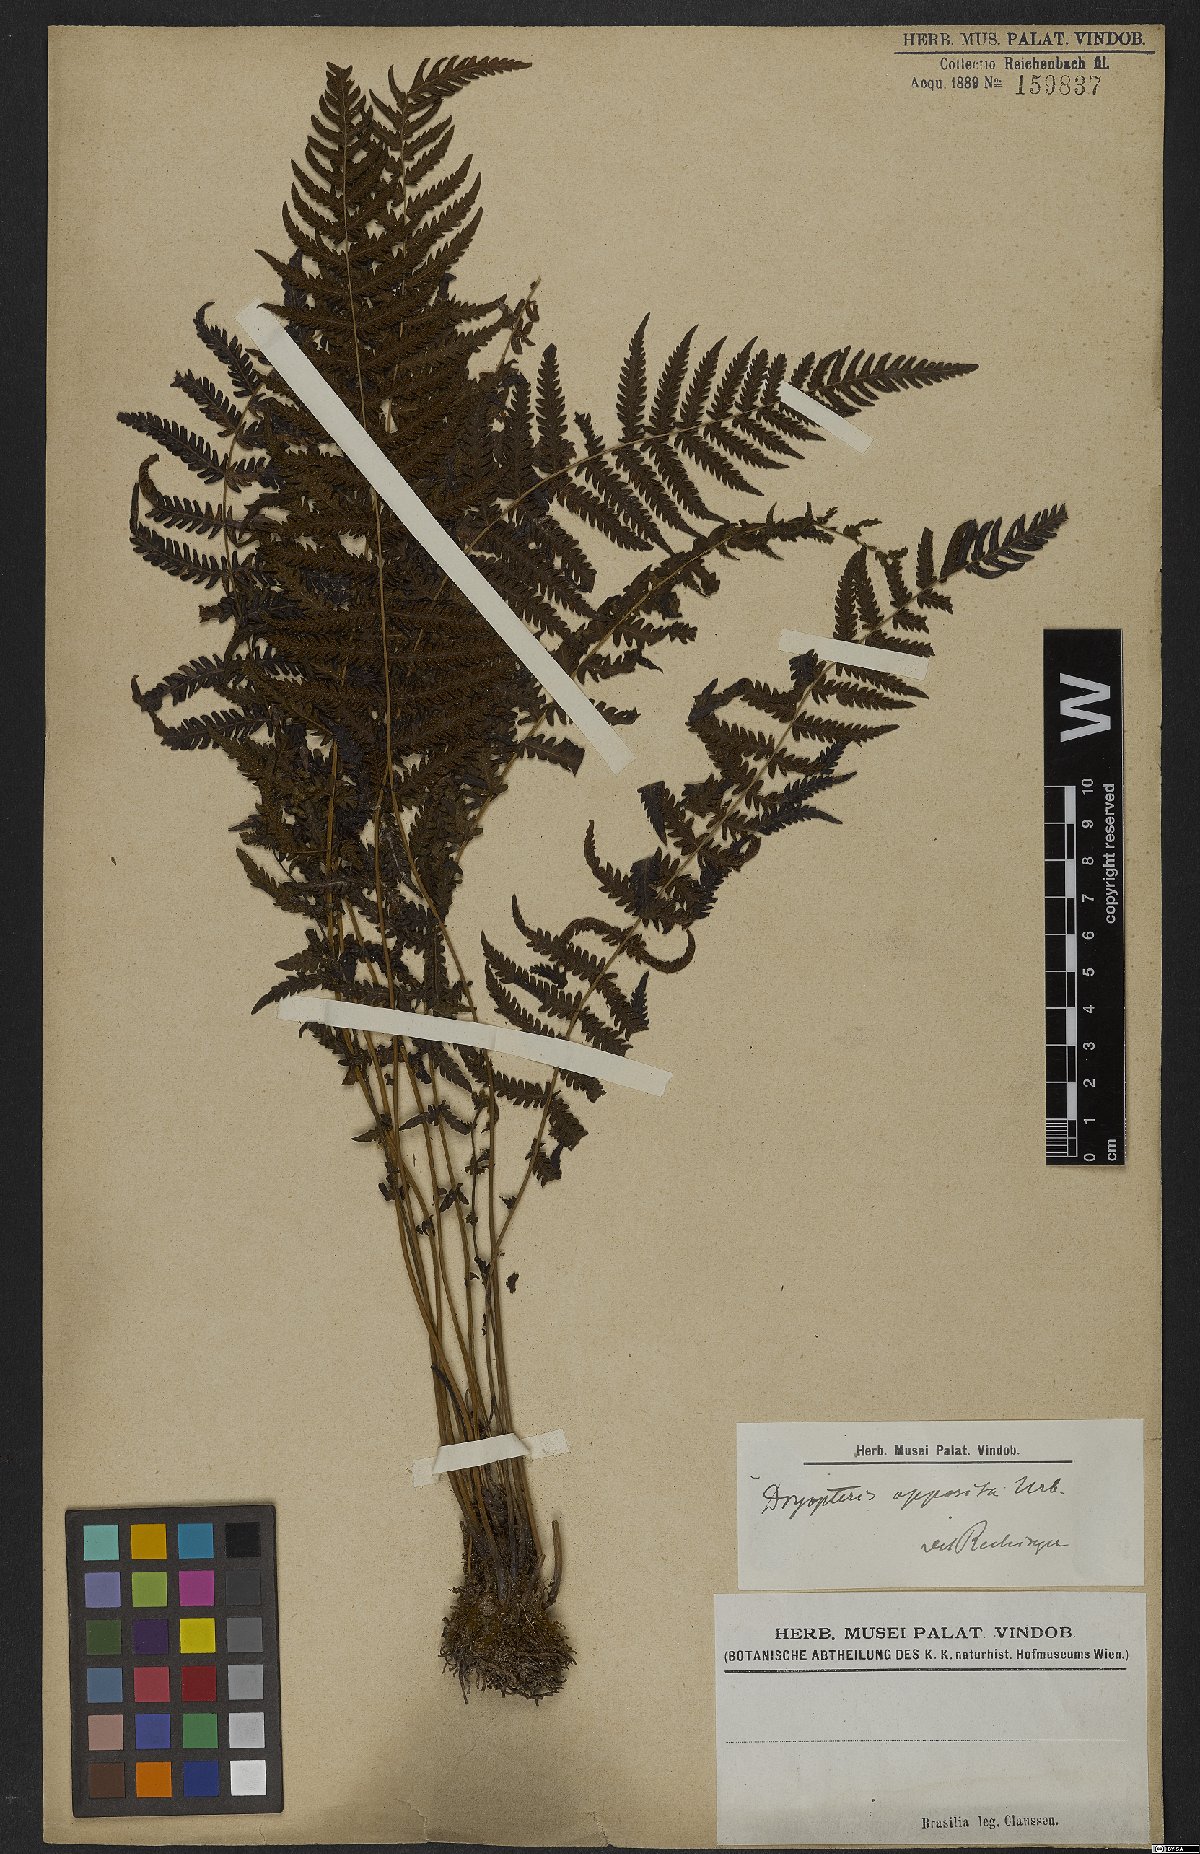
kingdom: Plantae
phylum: Tracheophyta
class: Polypodiopsida
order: Polypodiales
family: Thelypteridaceae
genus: Amauropelta
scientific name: Amauropelta opposita
